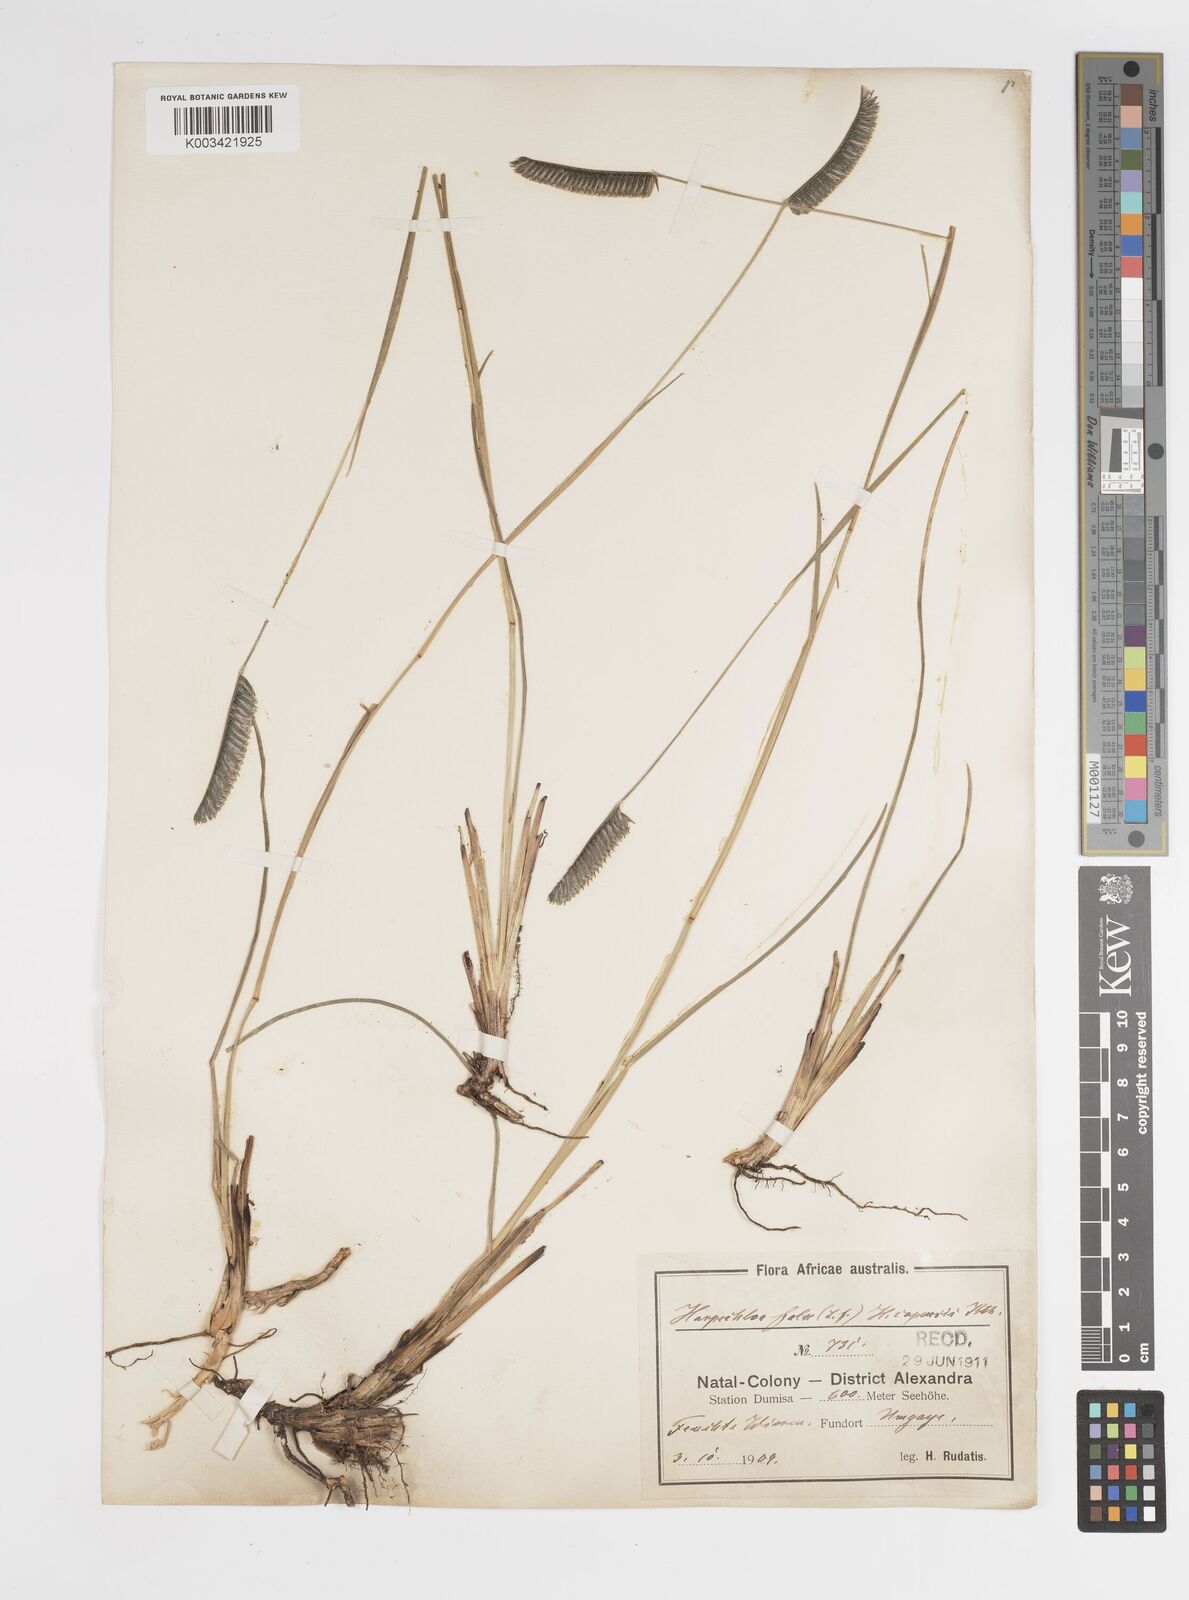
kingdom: Plantae
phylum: Tracheophyta
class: Liliopsida
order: Poales
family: Poaceae
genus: Harpochloa
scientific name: Harpochloa falx
